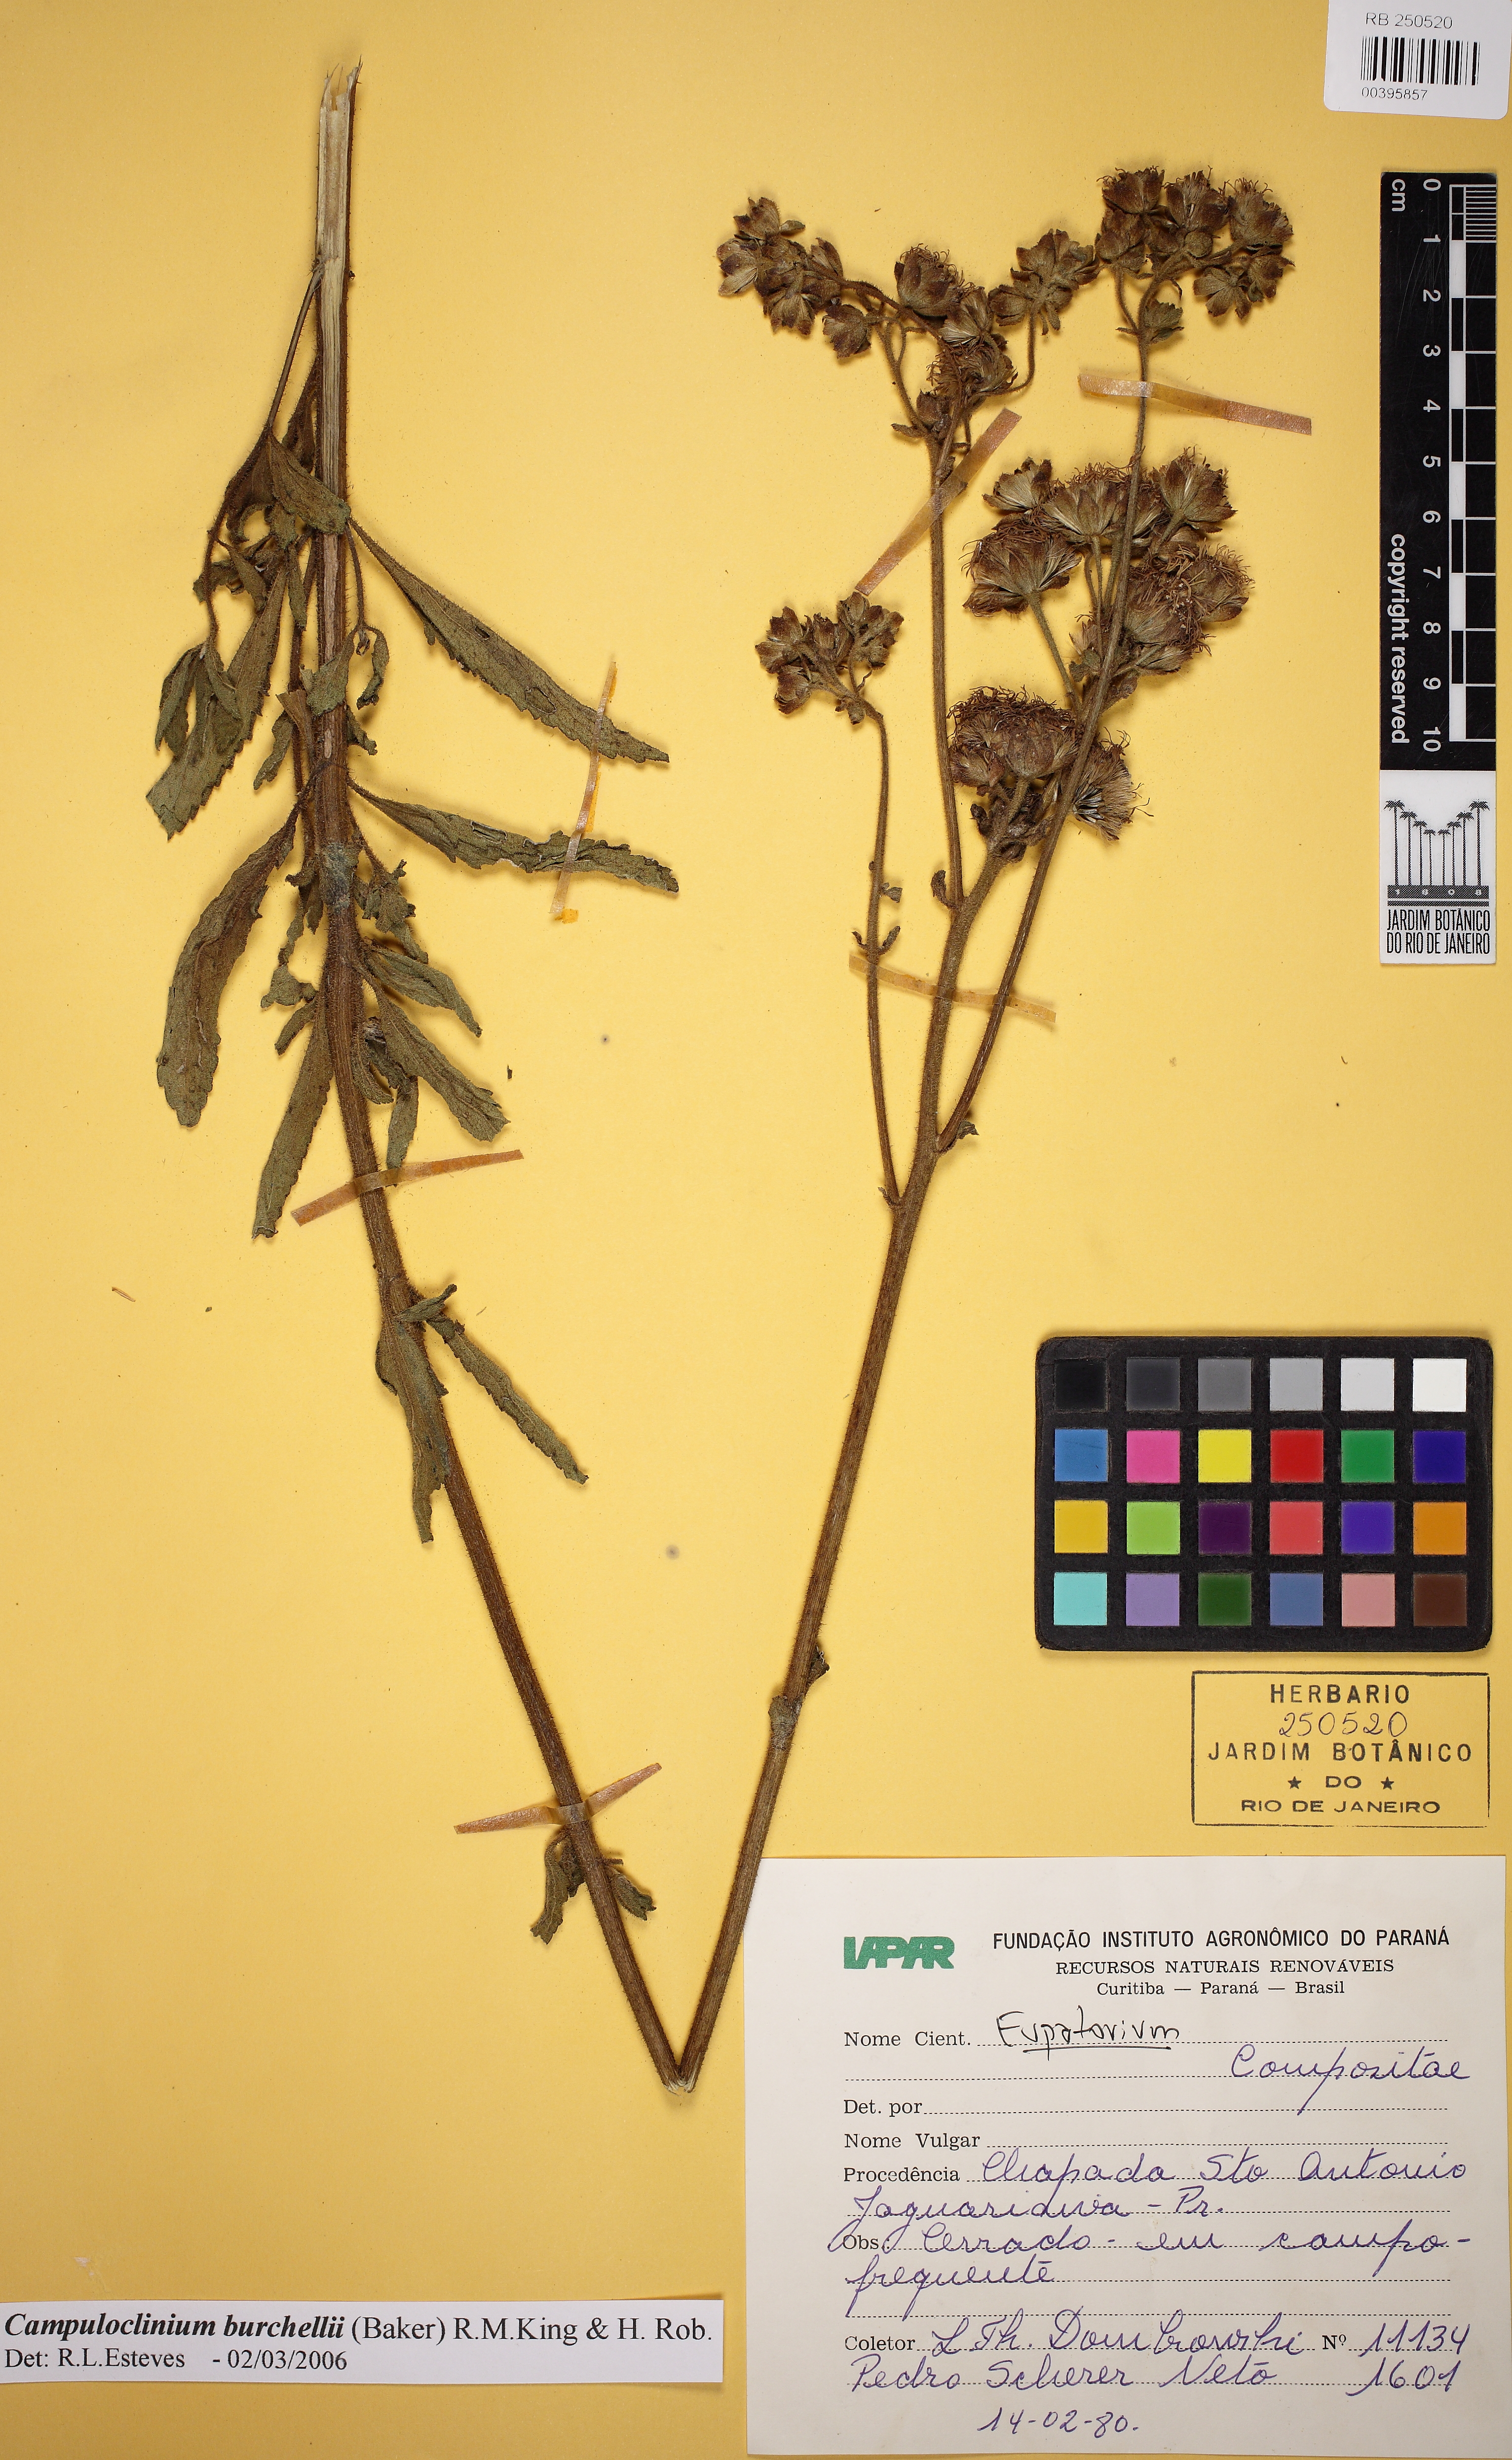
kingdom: Plantae
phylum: Tracheophyta
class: Magnoliopsida
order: Asterales
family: Asteraceae
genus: Campuloclinium
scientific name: Campuloclinium macrocephalum
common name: Pompomweed
